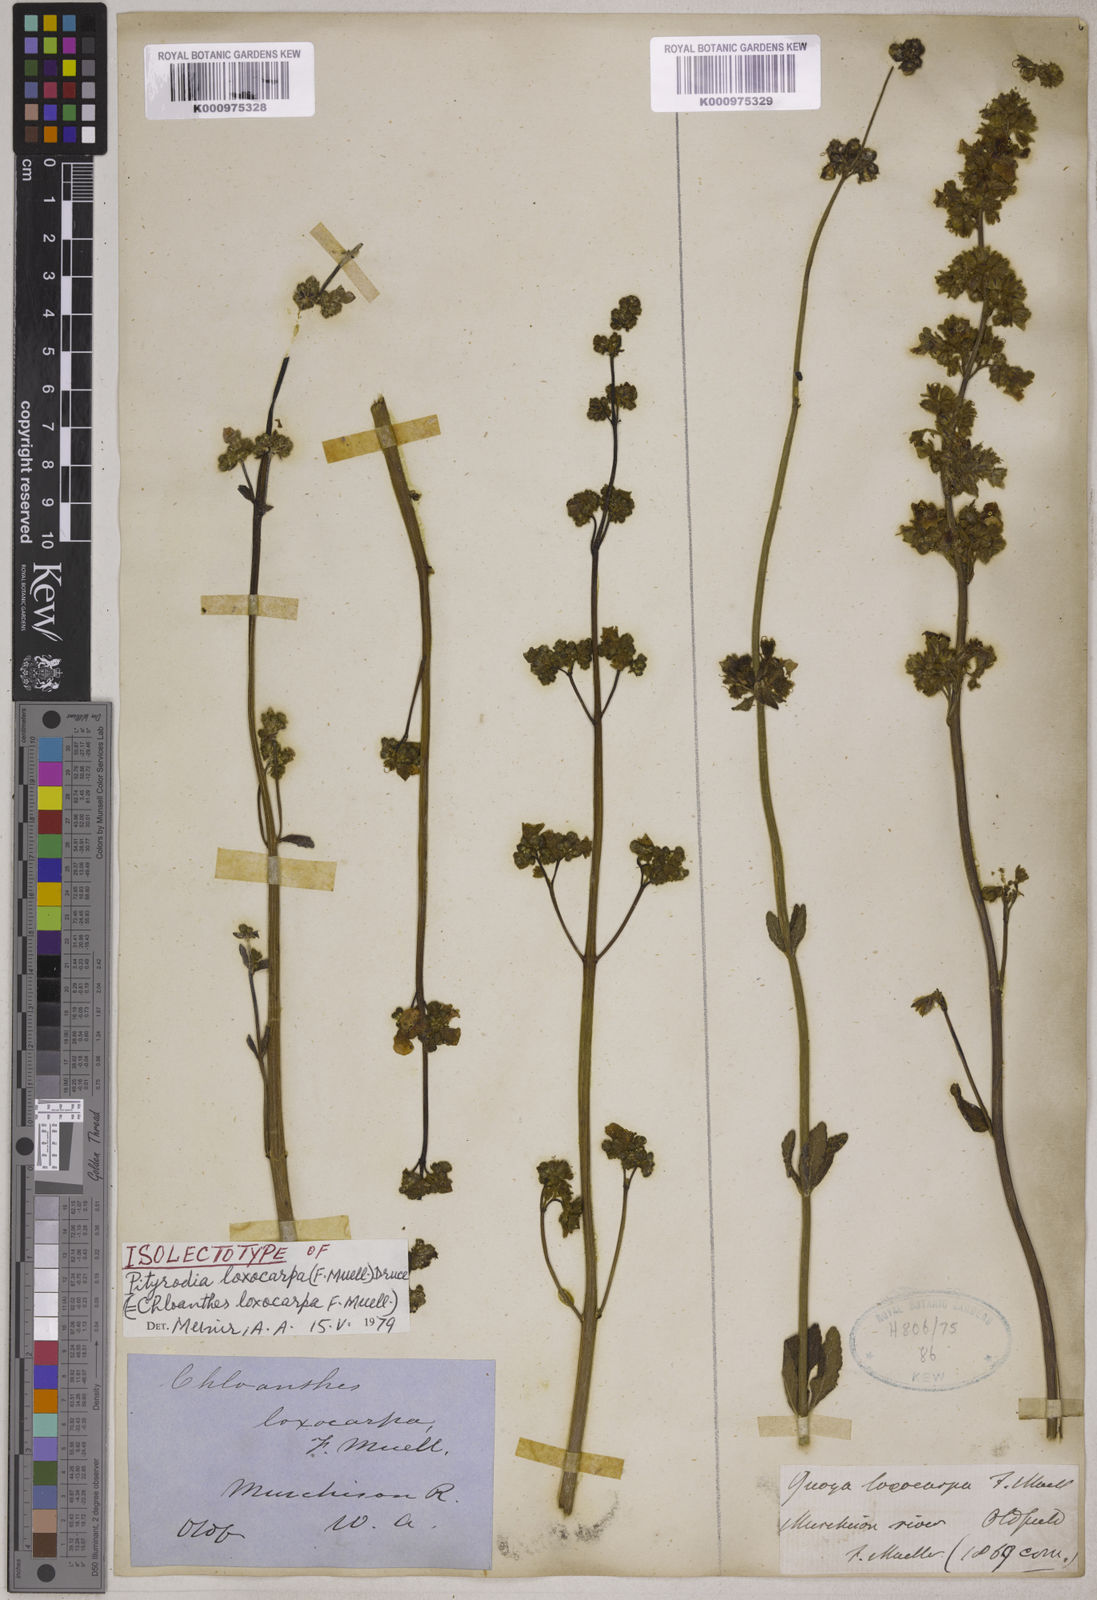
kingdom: Plantae
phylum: Tracheophyta
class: Magnoliopsida
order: Lamiales
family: Lamiaceae
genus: Quoya
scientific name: Quoya loxocarpa
